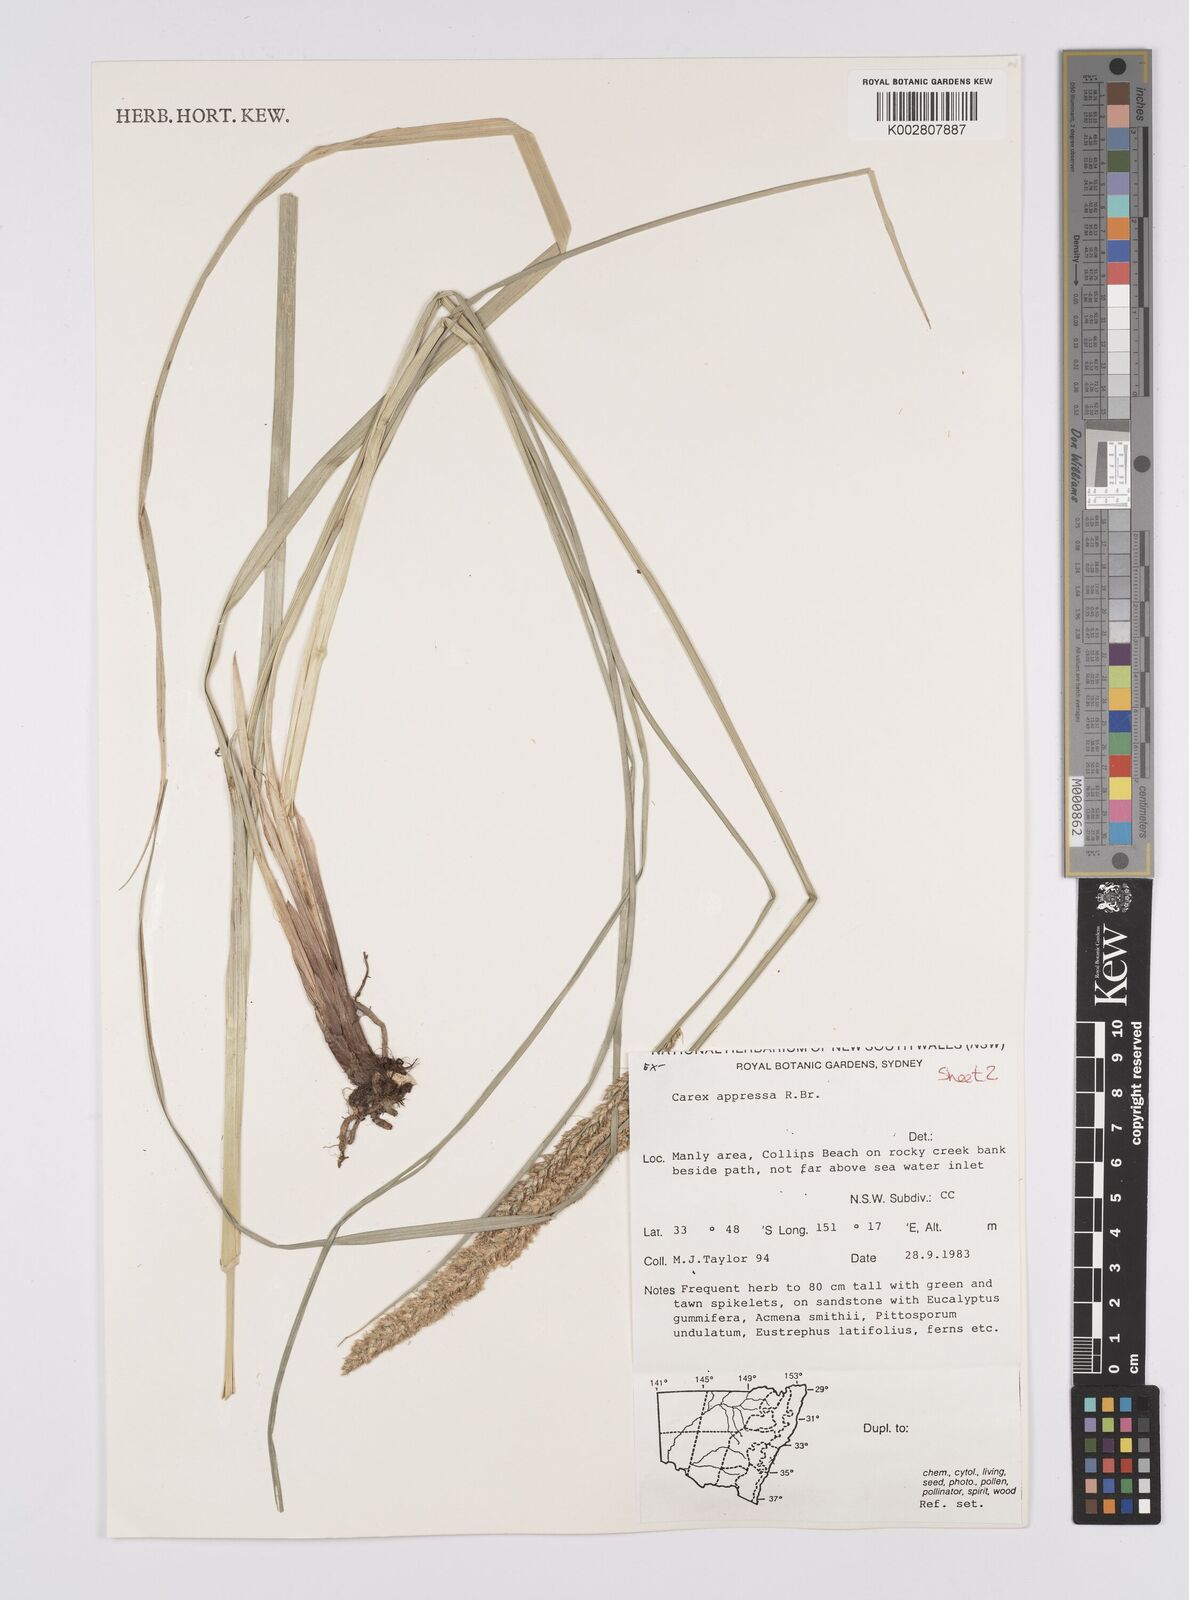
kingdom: Plantae
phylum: Tracheophyta
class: Liliopsida
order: Poales
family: Cyperaceae
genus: Carex
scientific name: Carex appressa
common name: Tussock sedge
